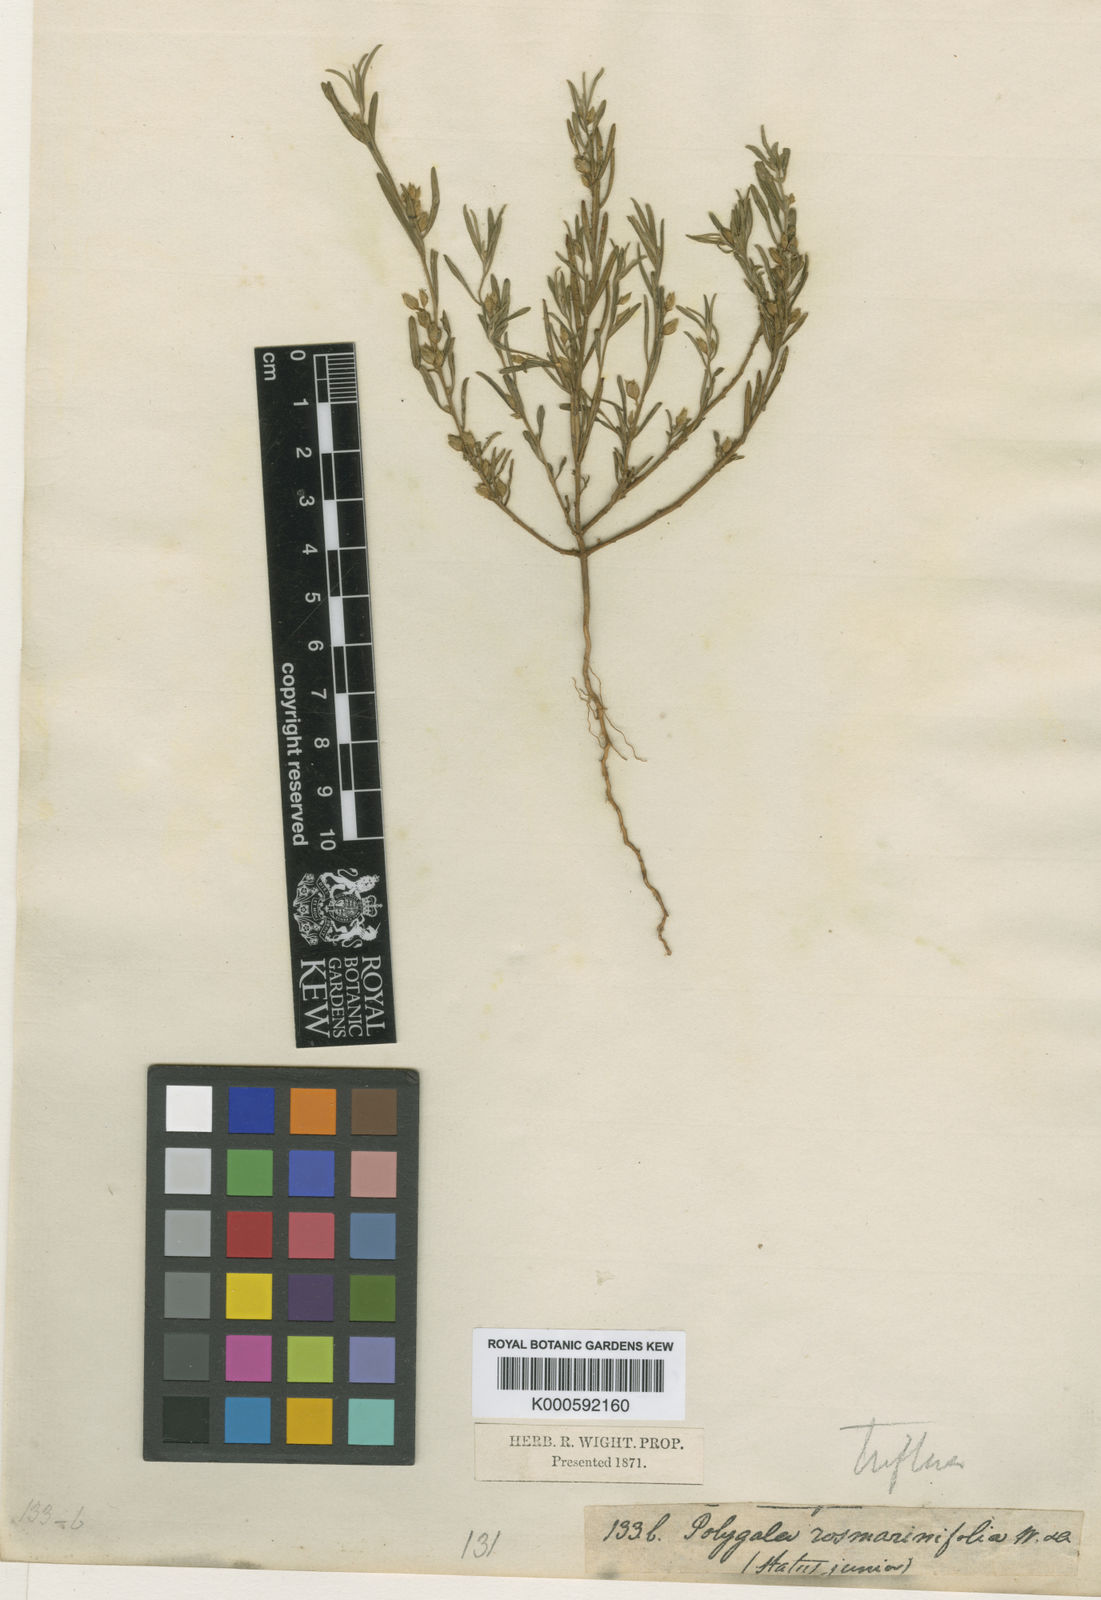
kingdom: Plantae
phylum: Tracheophyta
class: Magnoliopsida
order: Fabales
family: Polygalaceae
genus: Polygala
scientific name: Polygala rosmarinifolia
